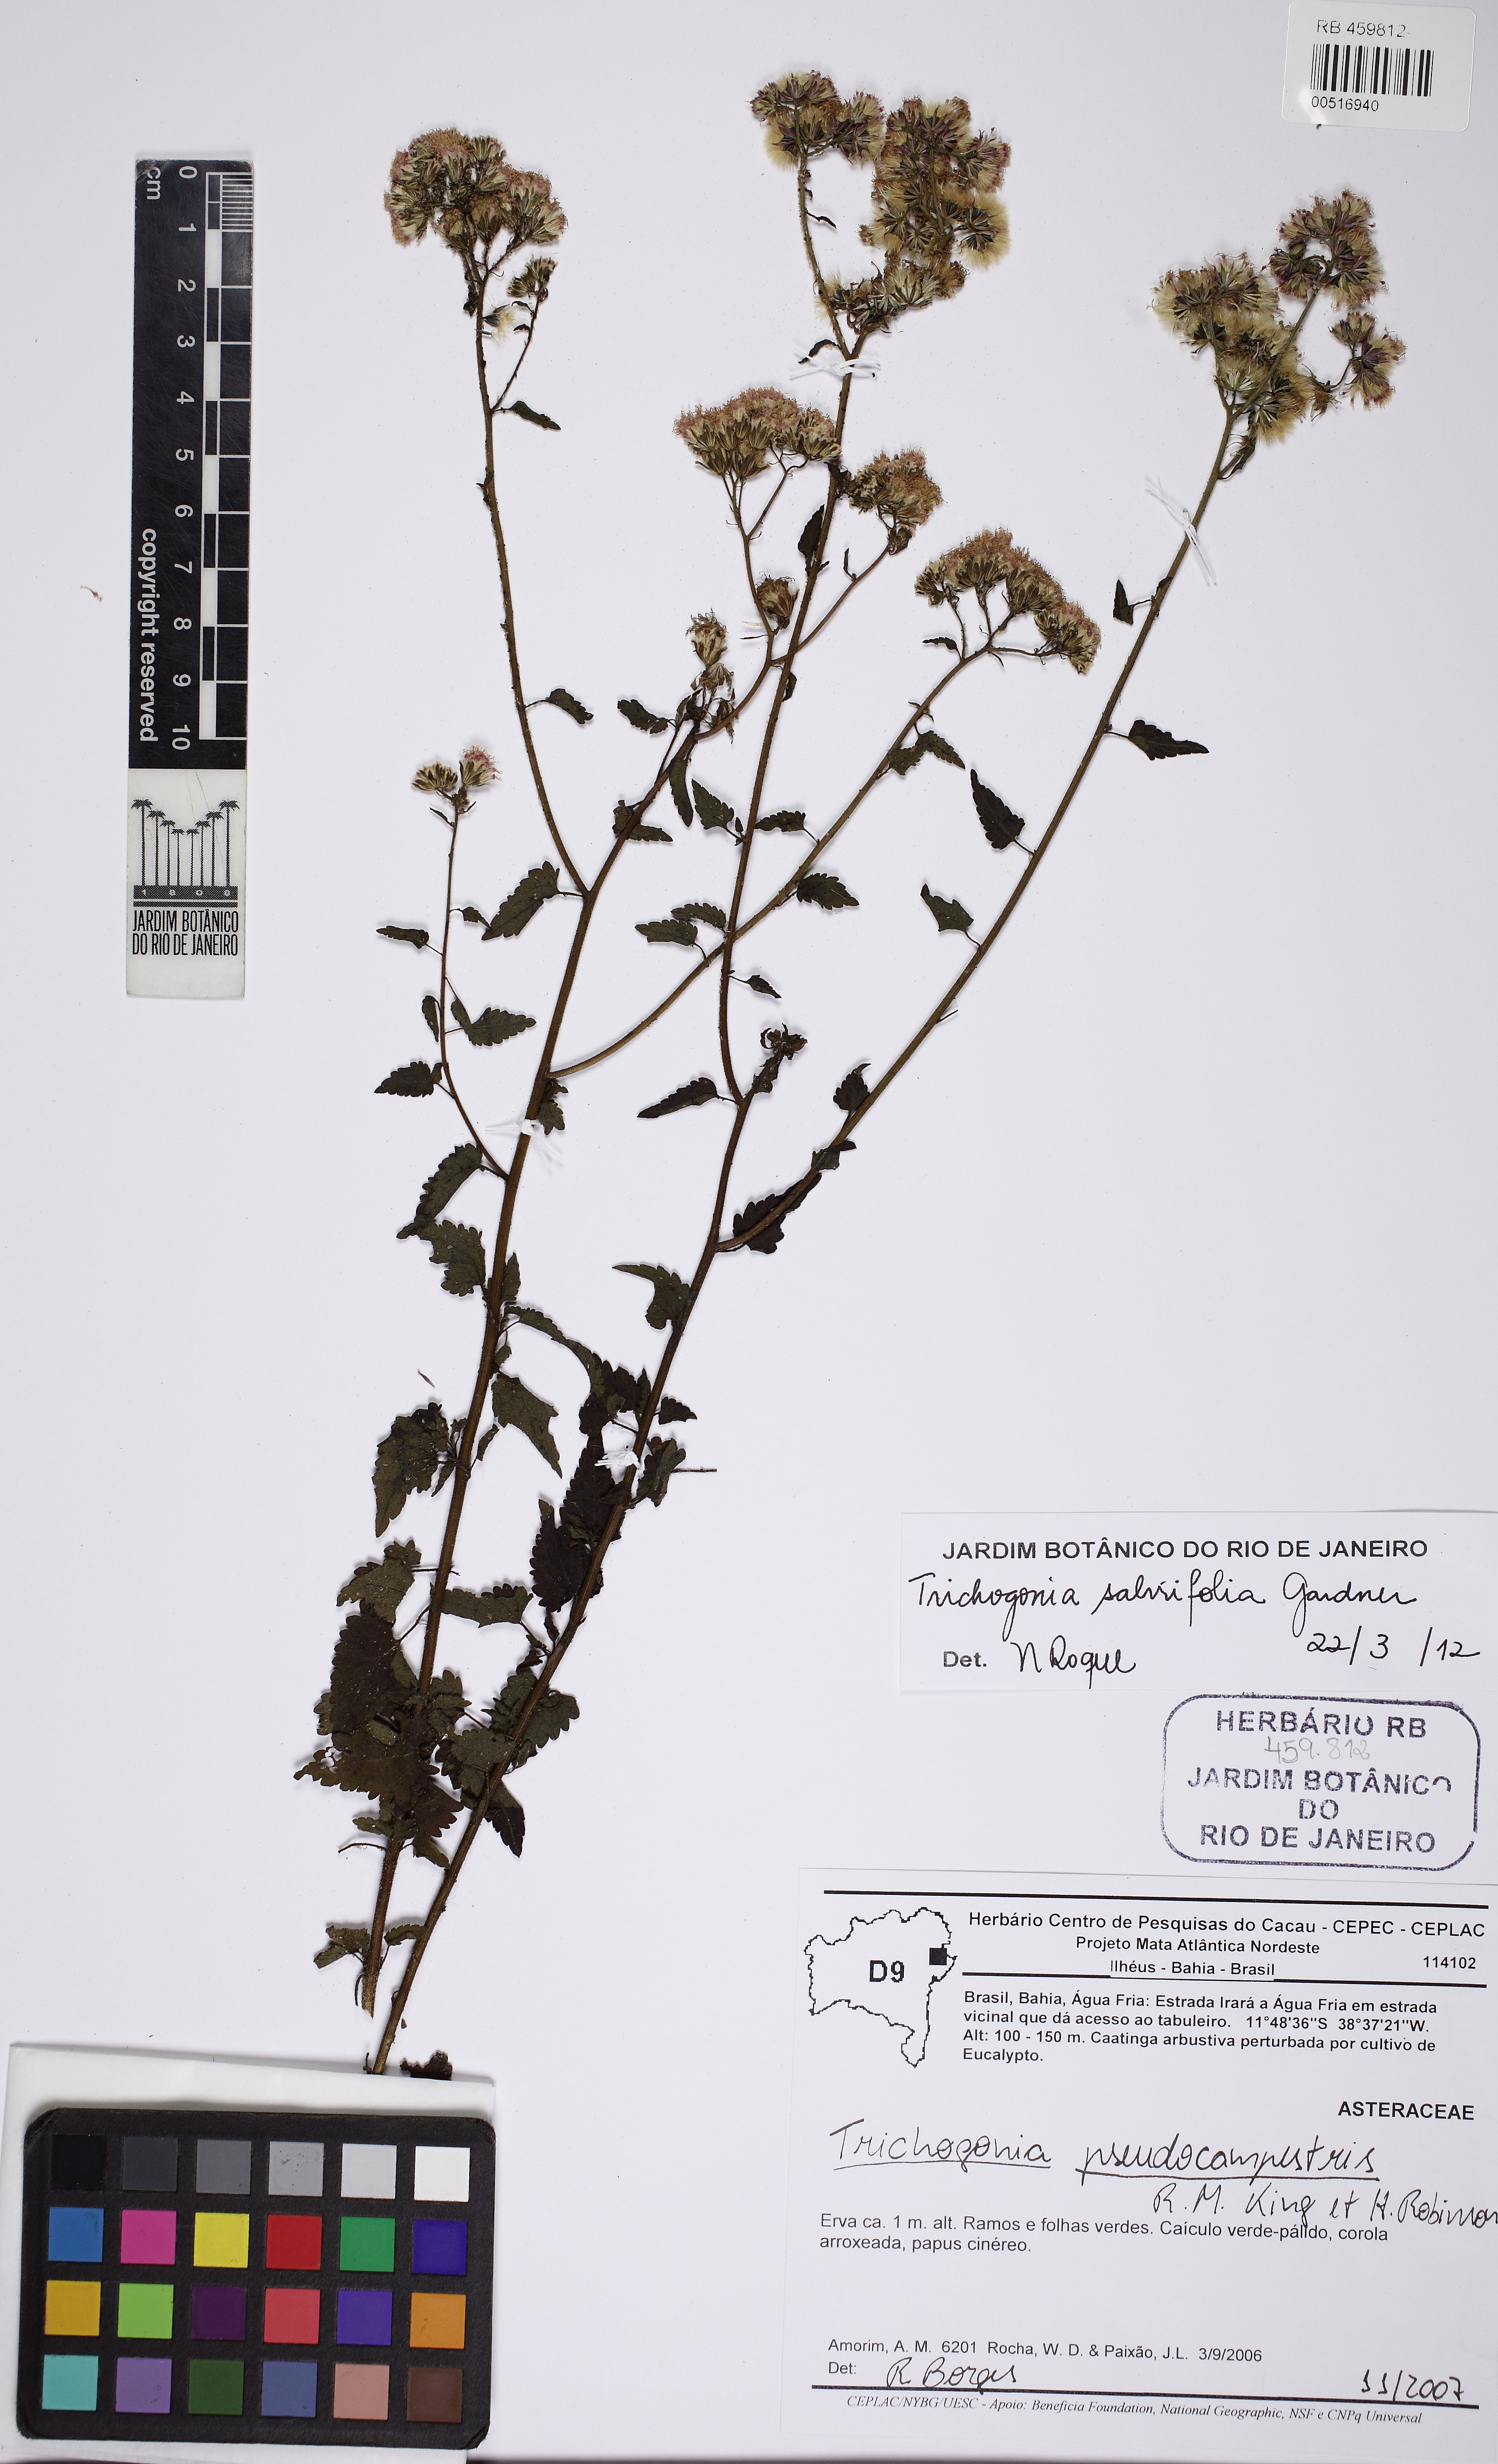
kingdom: Plantae
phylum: Tracheophyta
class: Magnoliopsida
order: Asterales
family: Asteraceae
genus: Trichogonia
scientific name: Trichogonia salviifolia
